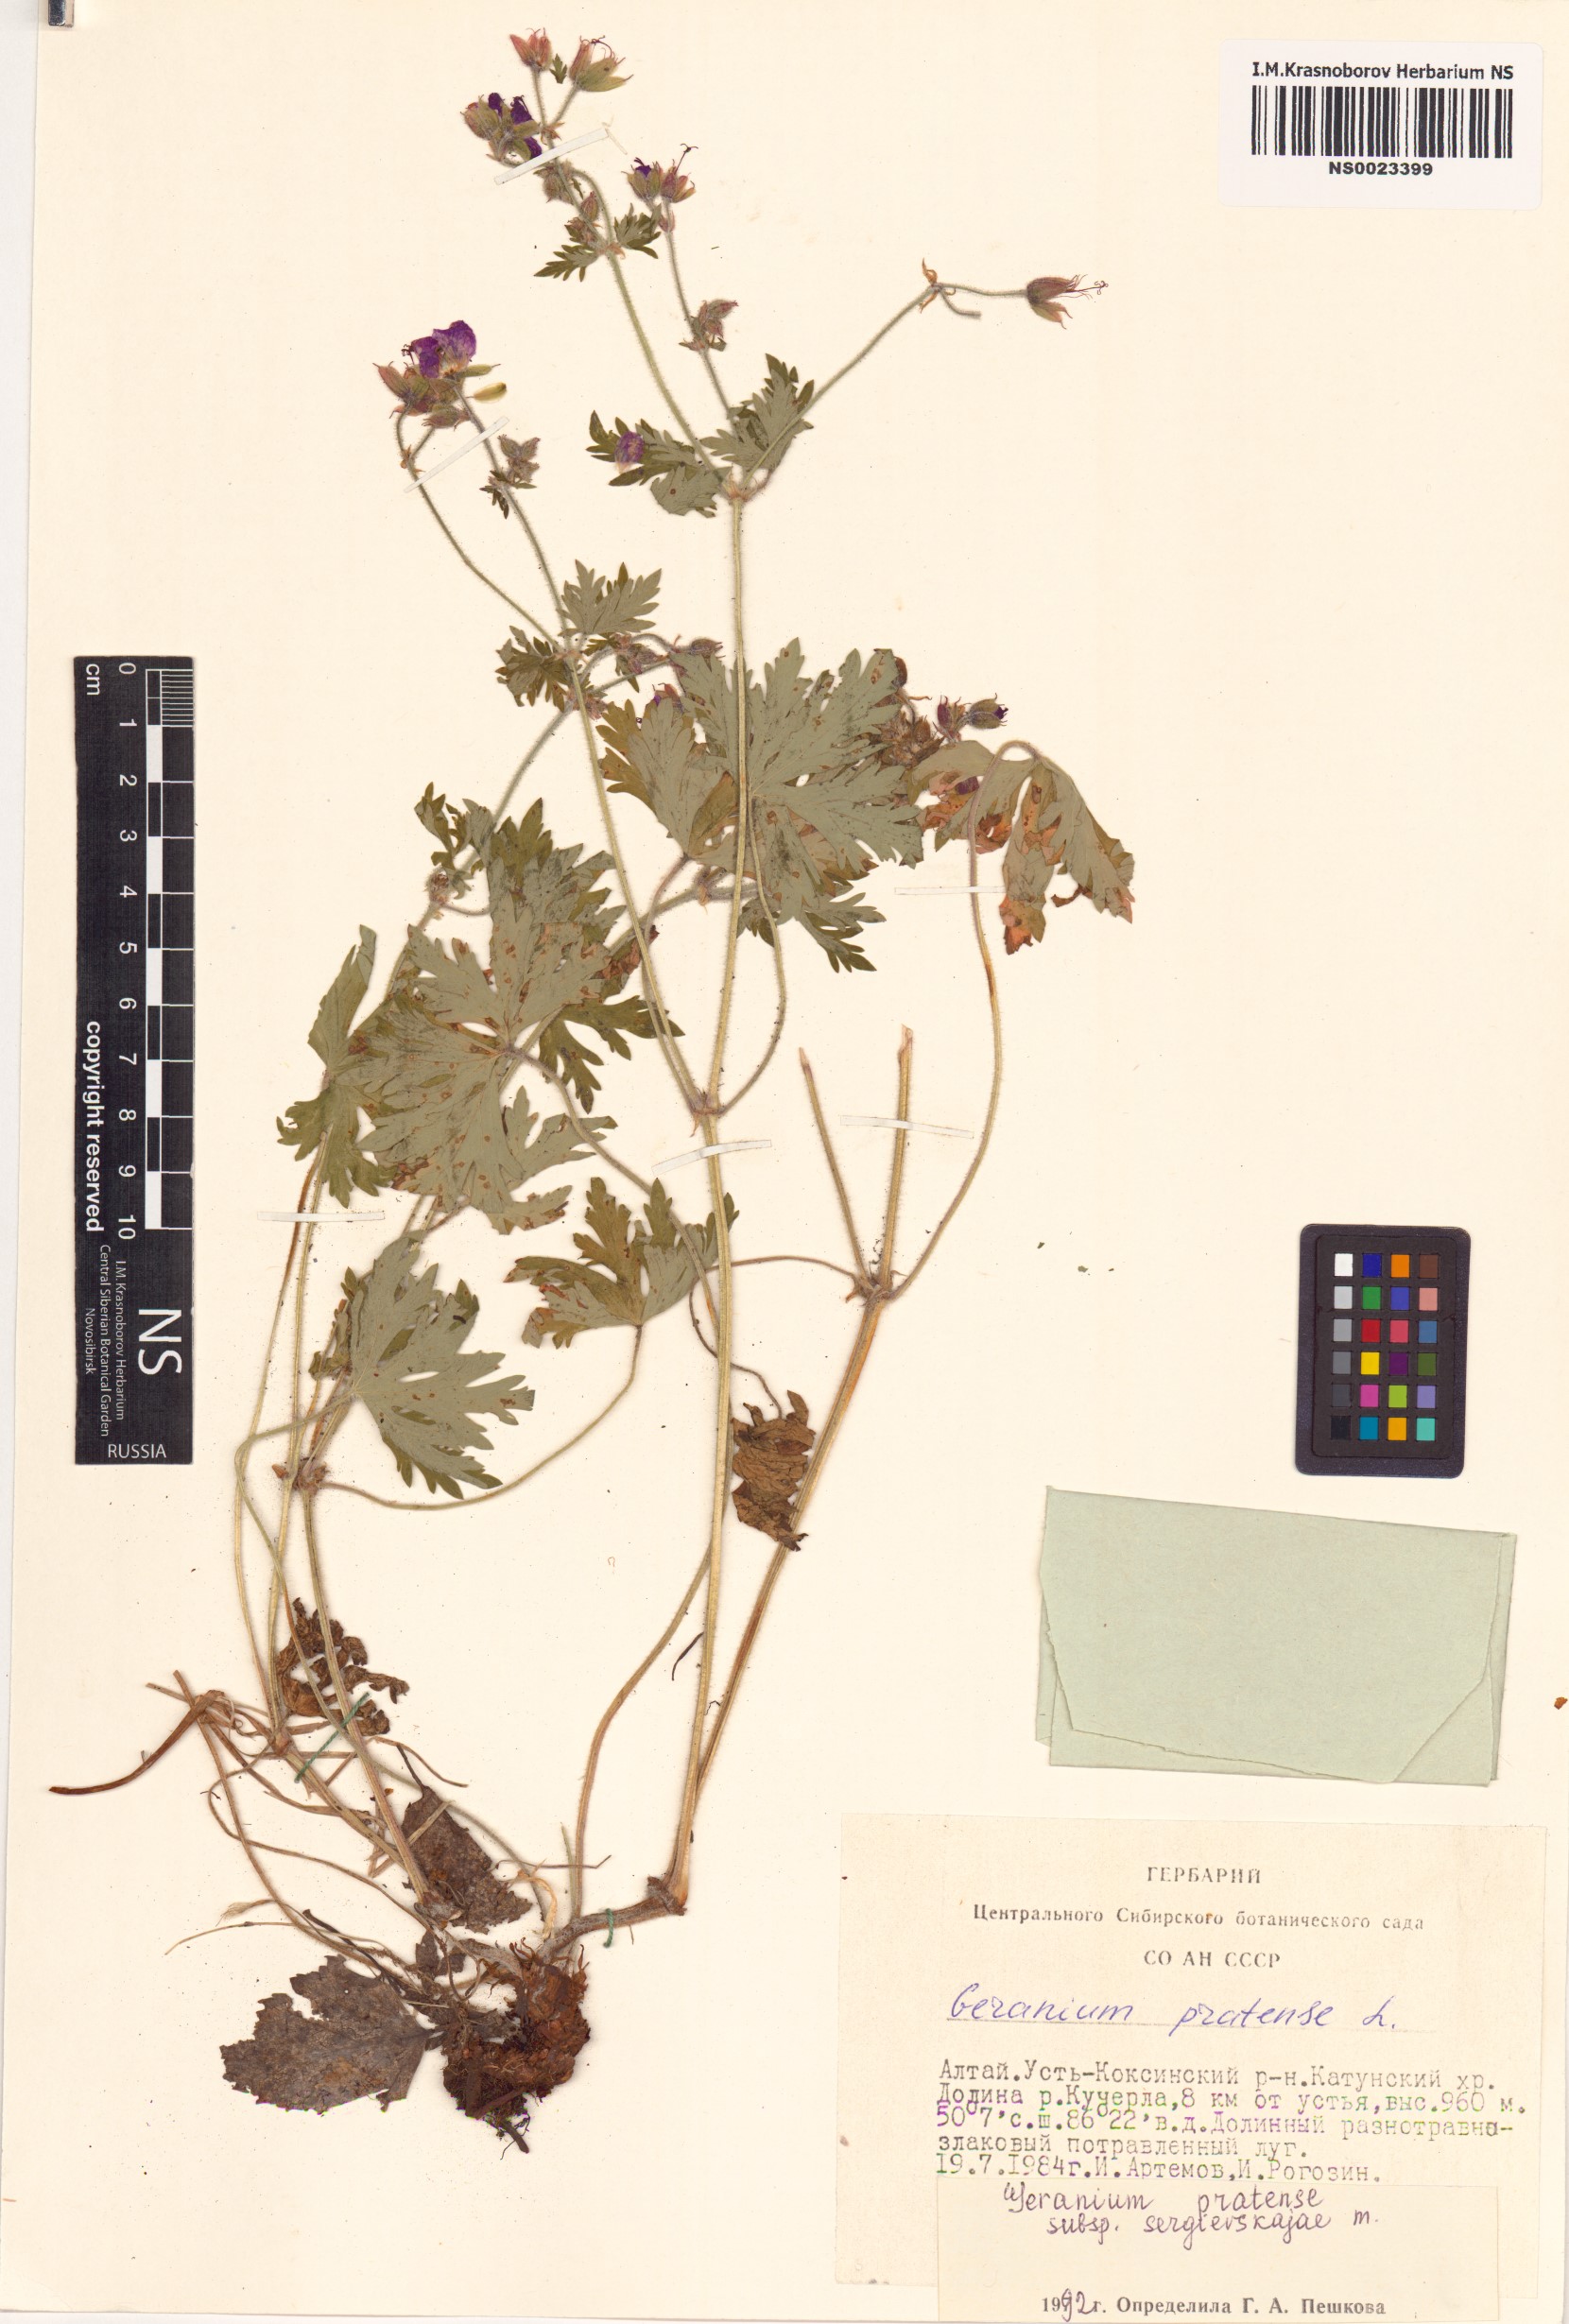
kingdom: Plantae
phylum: Tracheophyta
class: Magnoliopsida
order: Geraniales
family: Geraniaceae
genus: Geranium
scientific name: Geranium pratense
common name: Meadow crane's-bill
